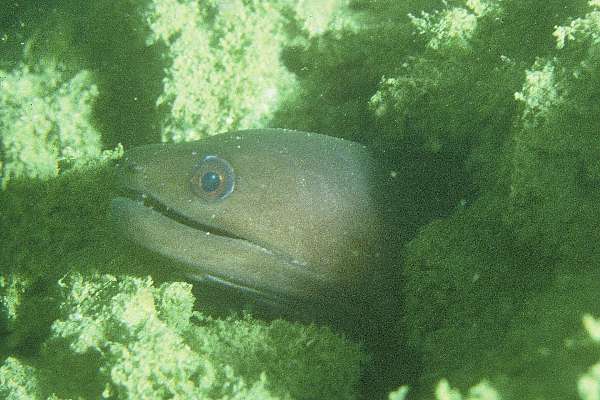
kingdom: Animalia
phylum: Chordata
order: Anguilliformes
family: Muraenidae
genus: Gymnothorax
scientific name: Gymnothorax hepaticus
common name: Liver-colored moray eel
